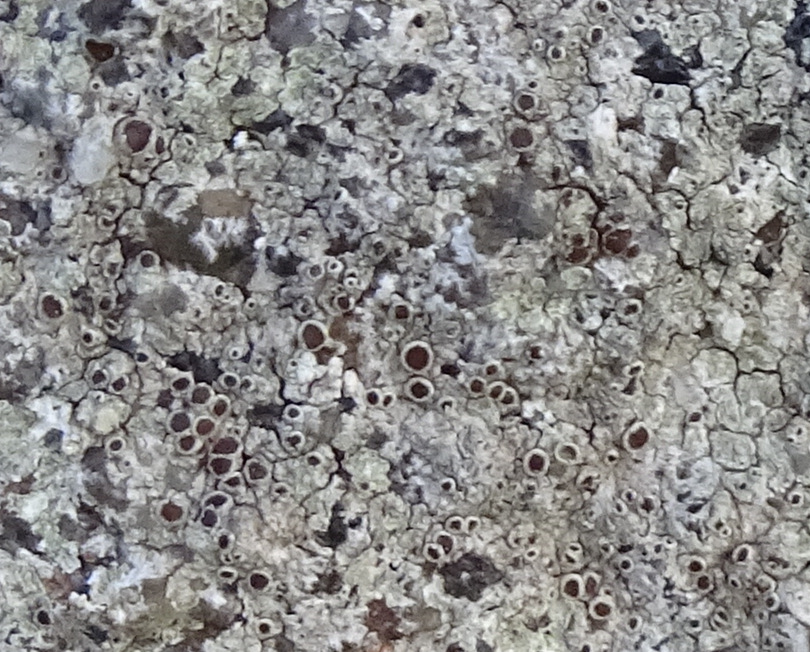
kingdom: Fungi
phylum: Ascomycota
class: Lecanoromycetes
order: Lecanorales
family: Lecanoraceae
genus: Lecanora
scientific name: Lecanora campestris
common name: mur-kantskivelav
